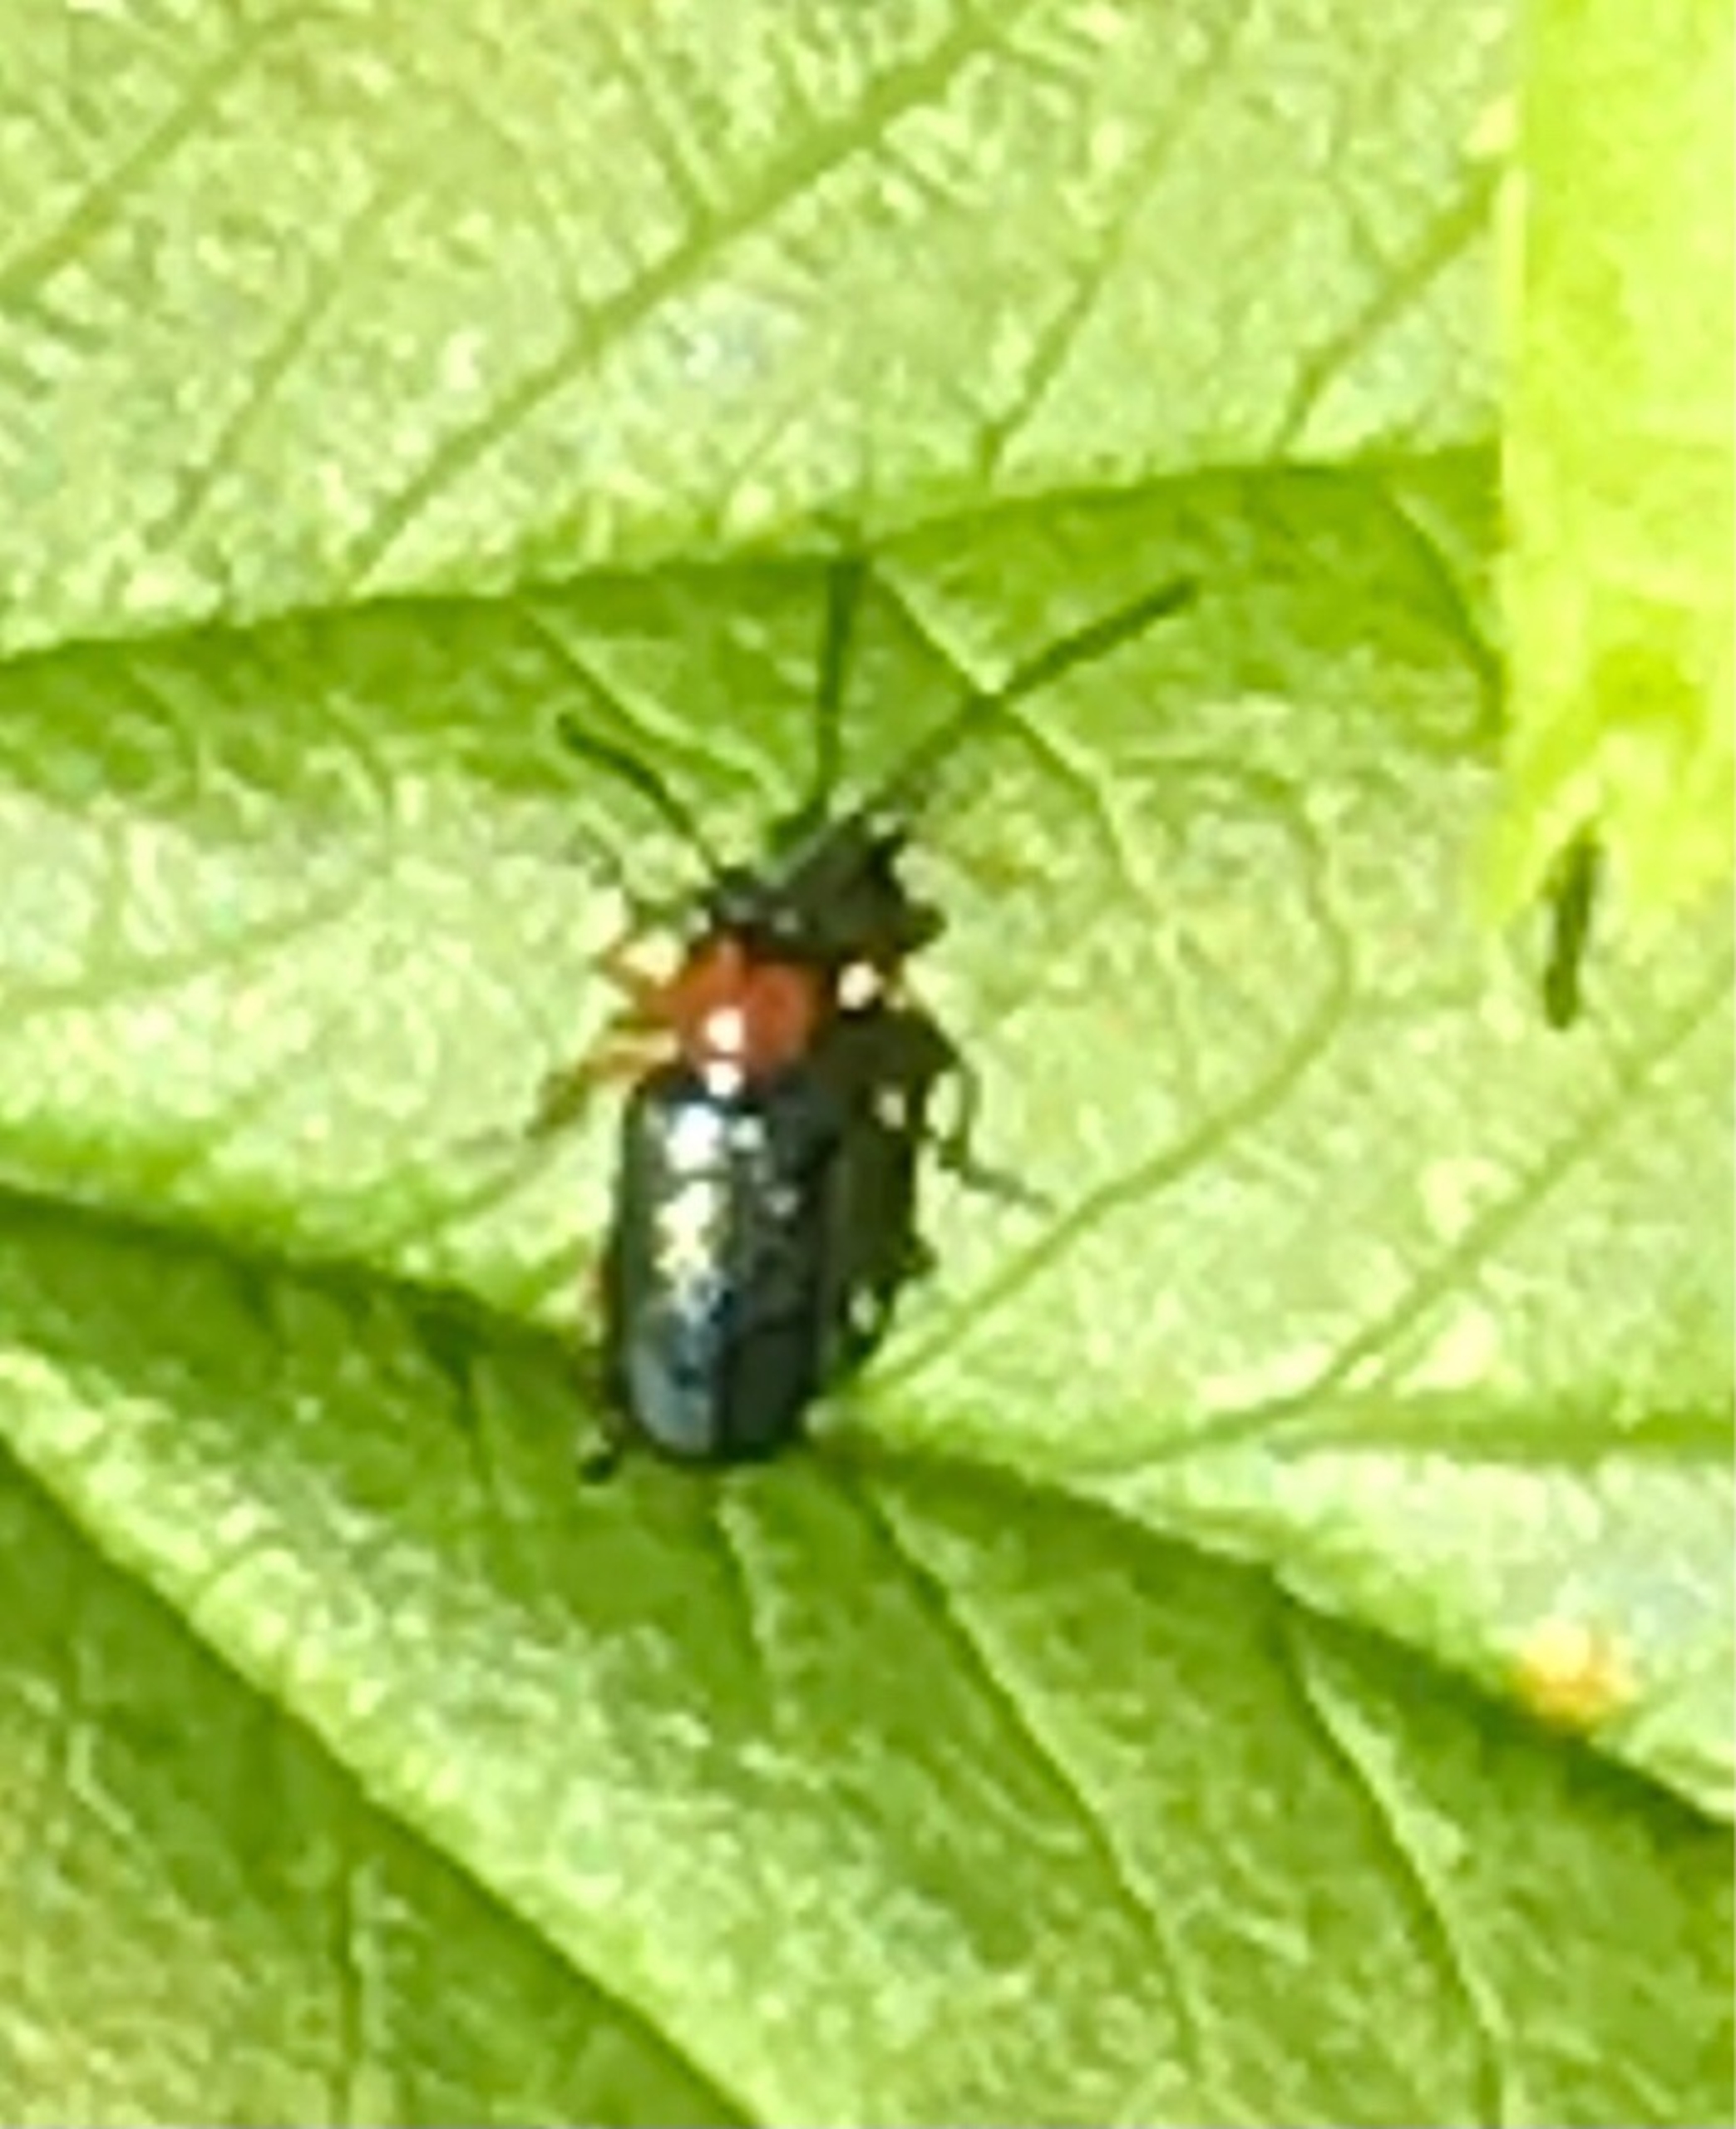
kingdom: Animalia
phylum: Arthropoda
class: Insecta
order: Coleoptera
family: Chrysomelidae
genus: Oulema
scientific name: Oulema
